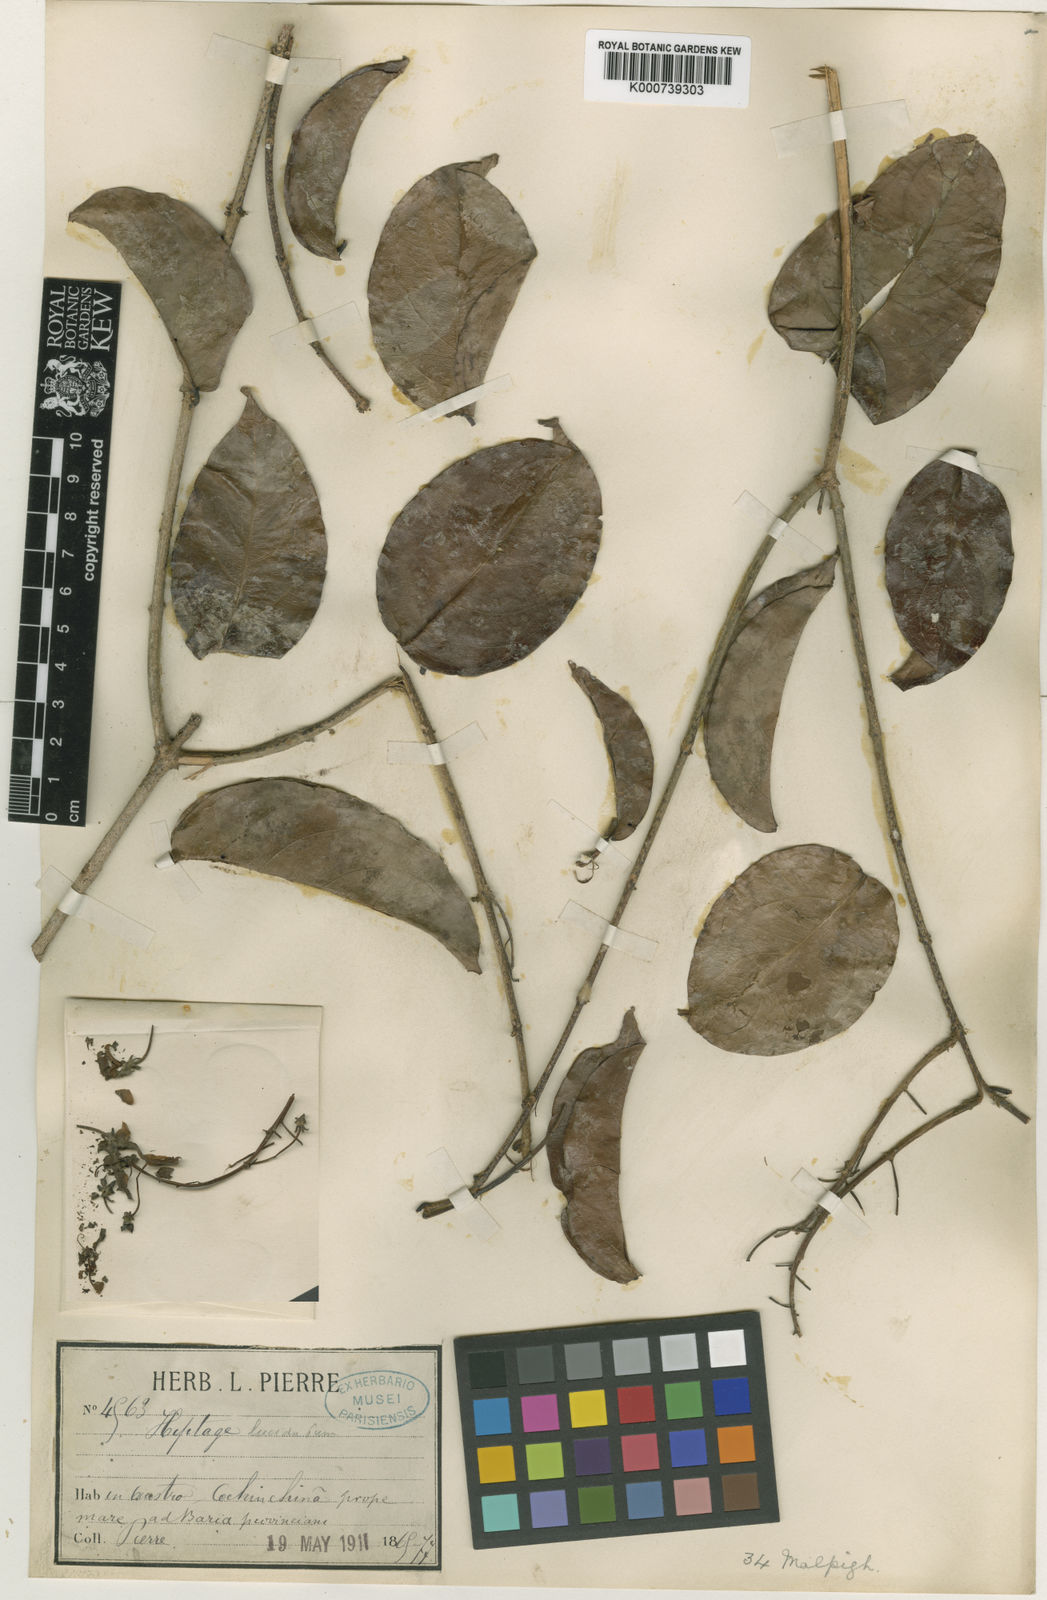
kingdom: Plantae
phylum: Tracheophyta
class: Magnoliopsida
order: Malpighiales
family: Malpighiaceae
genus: Hiptage
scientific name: Hiptage lucida
